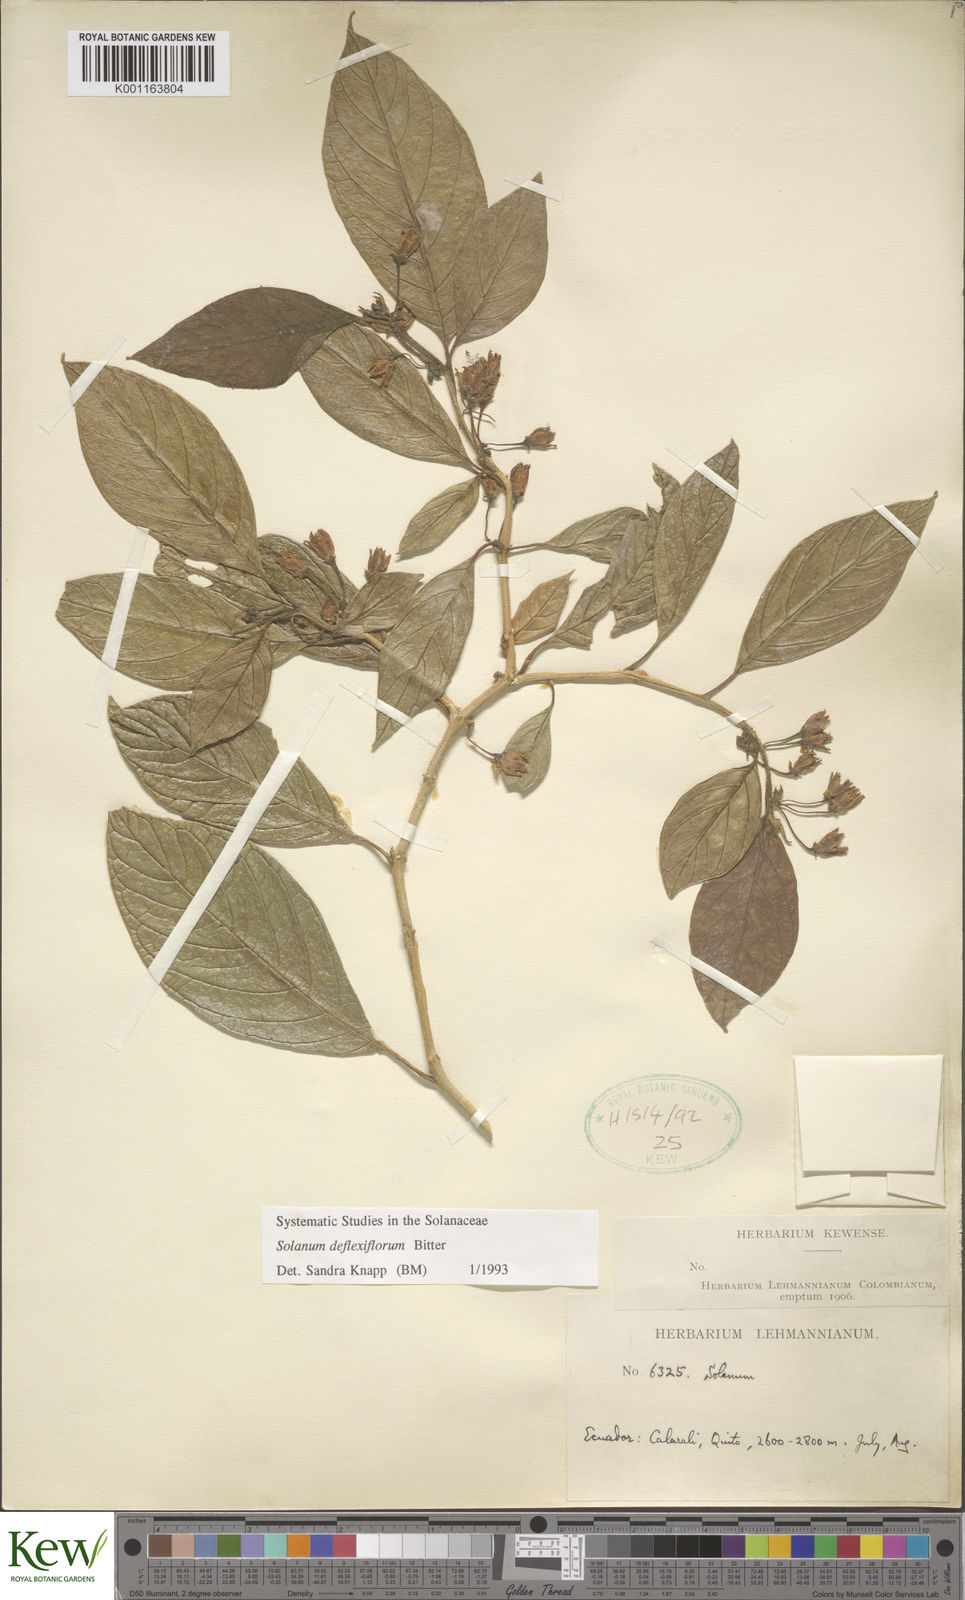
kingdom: Plantae
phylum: Tracheophyta
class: Magnoliopsida
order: Solanales
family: Solanaceae
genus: Solanum
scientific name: Solanum deflexiflorum
